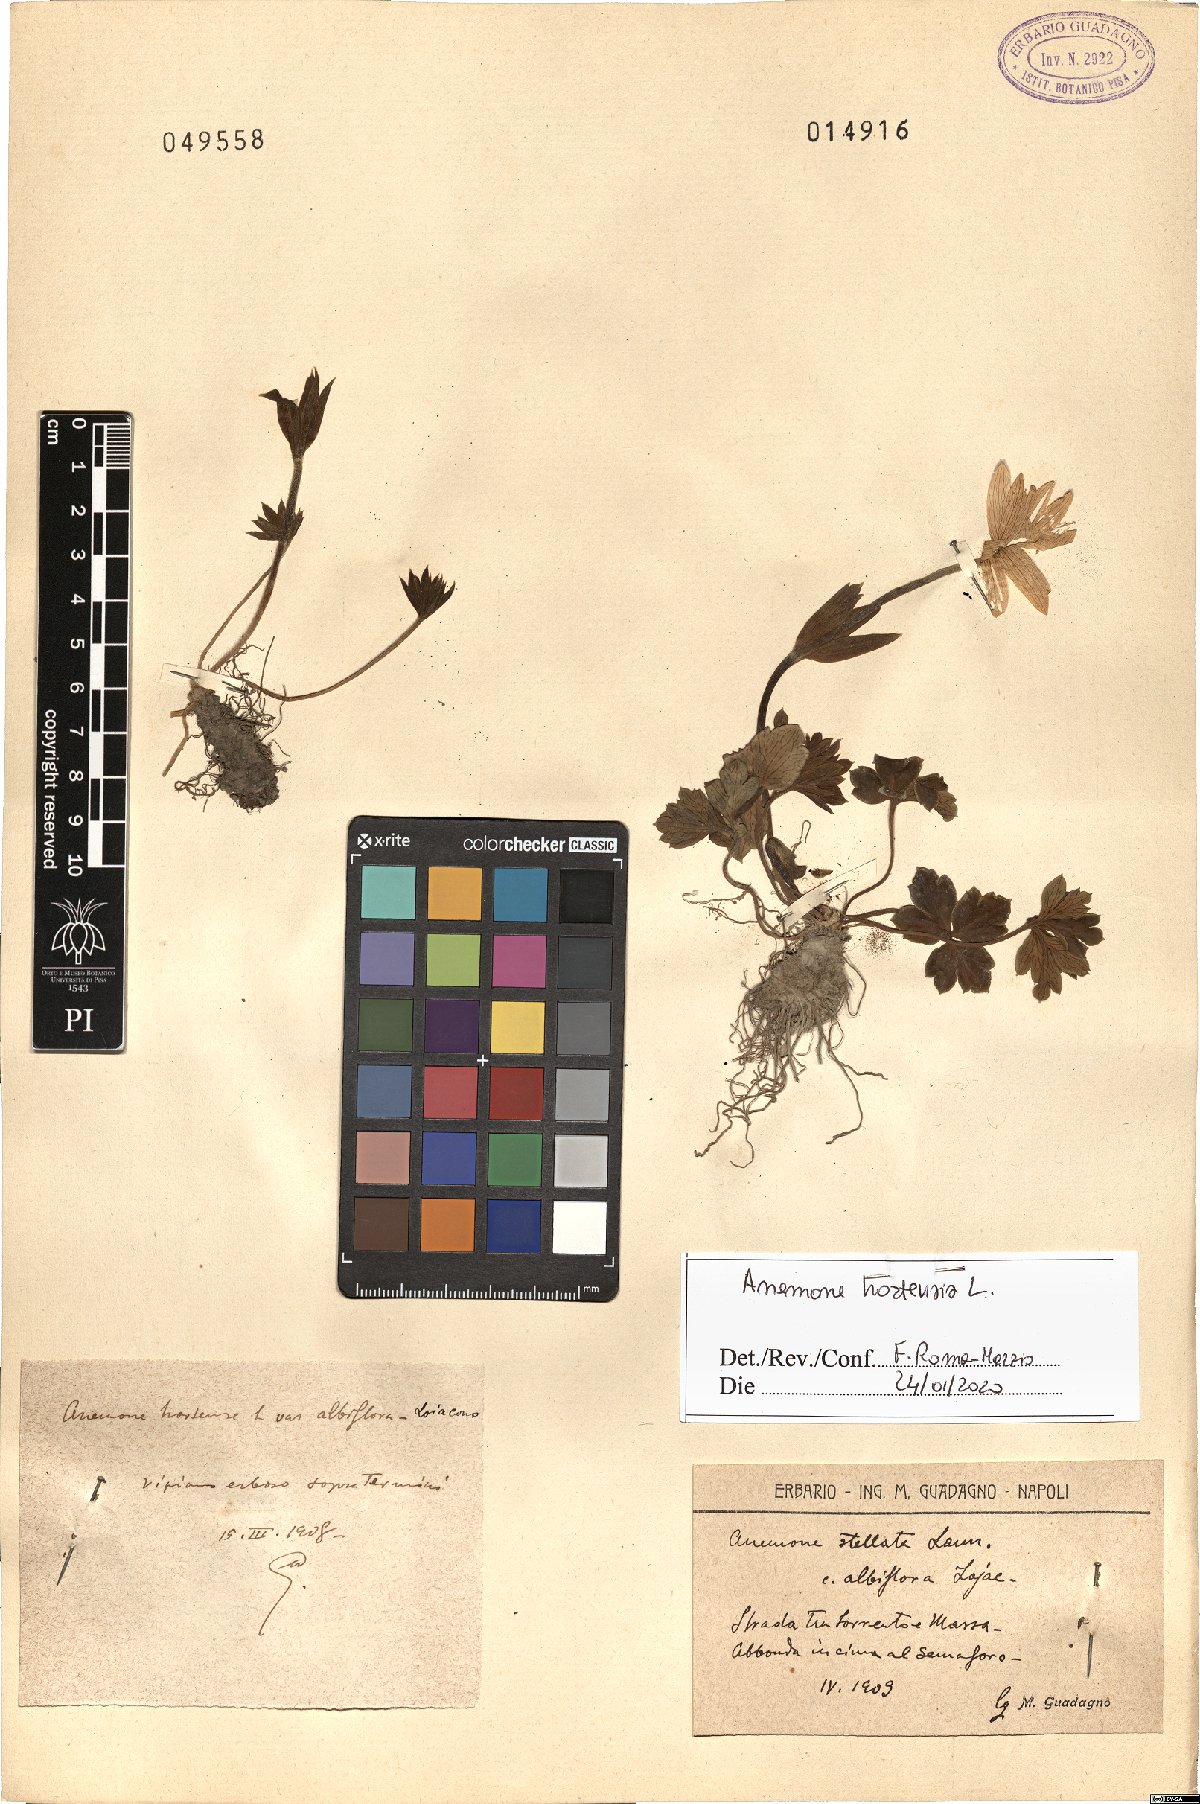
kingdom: Plantae
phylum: Tracheophyta
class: Magnoliopsida
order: Ranunculales
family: Ranunculaceae
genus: Anemone
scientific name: Anemone hortensis
